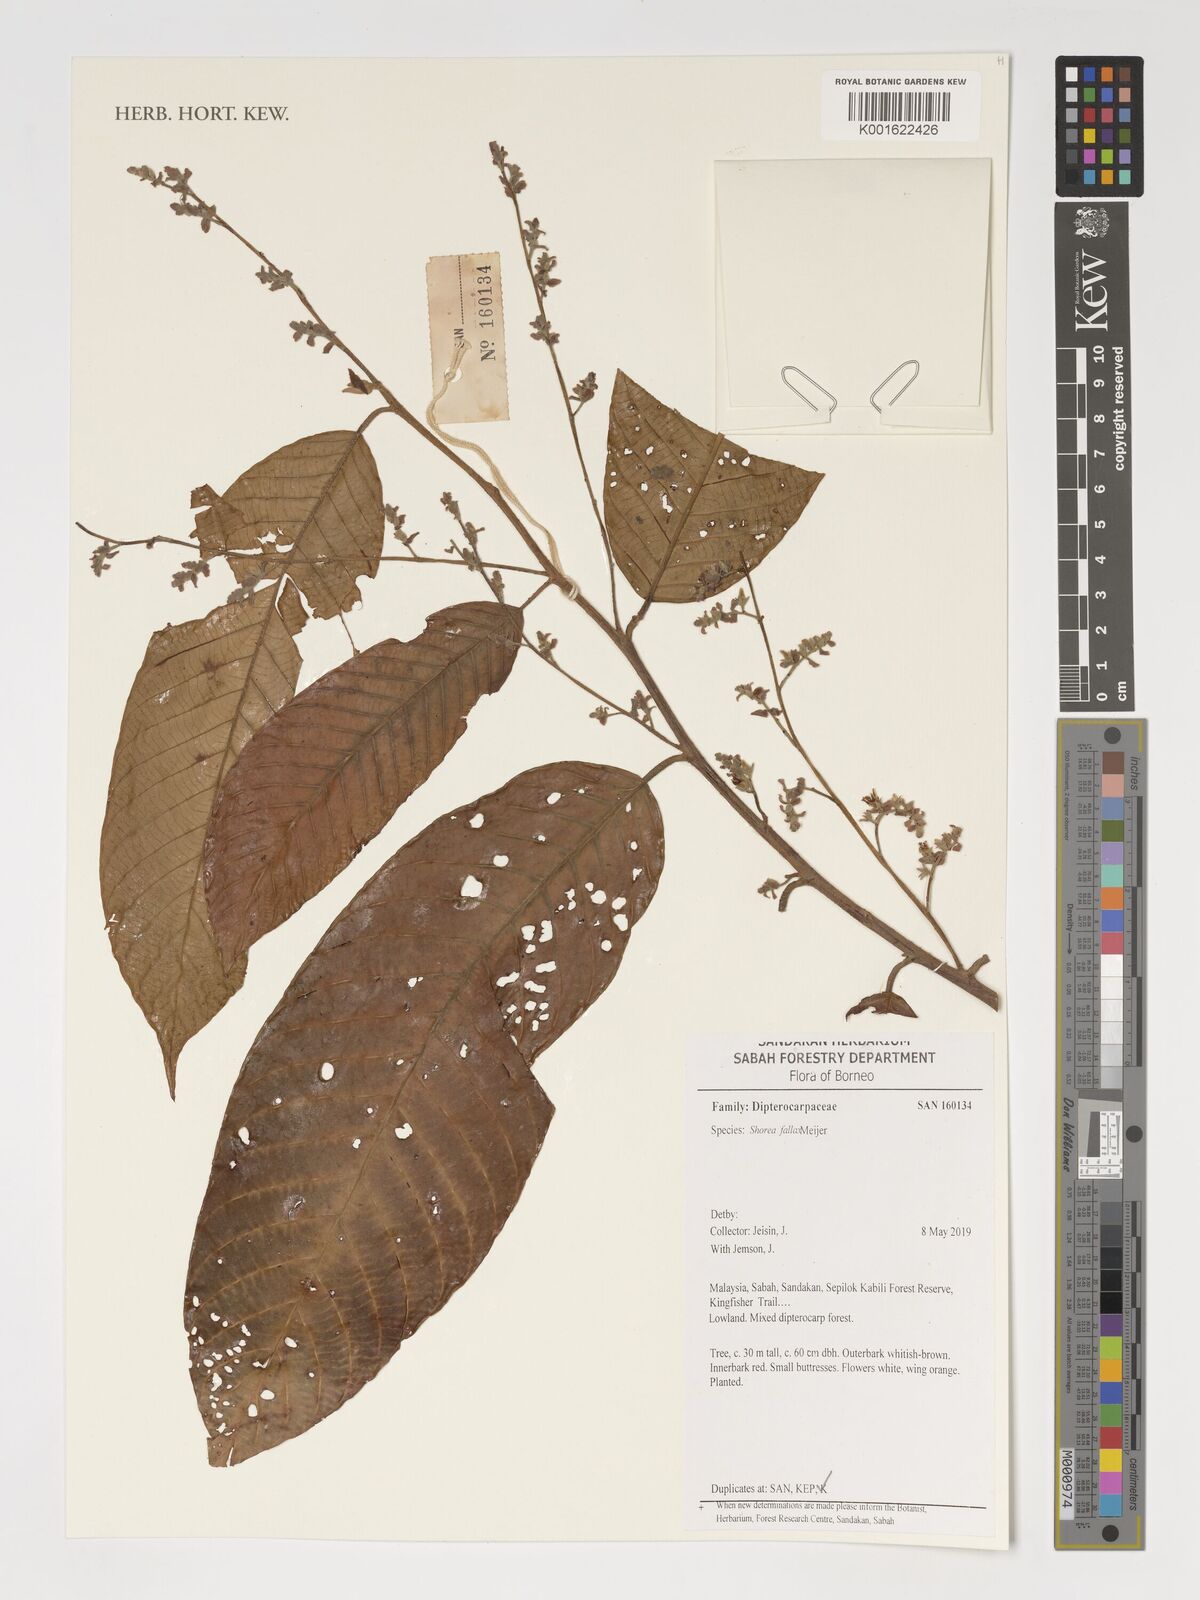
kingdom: Plantae
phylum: Tracheophyta
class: Magnoliopsida
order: Malvales
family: Dipterocarpaceae
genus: Shorea
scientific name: Shorea fallax
